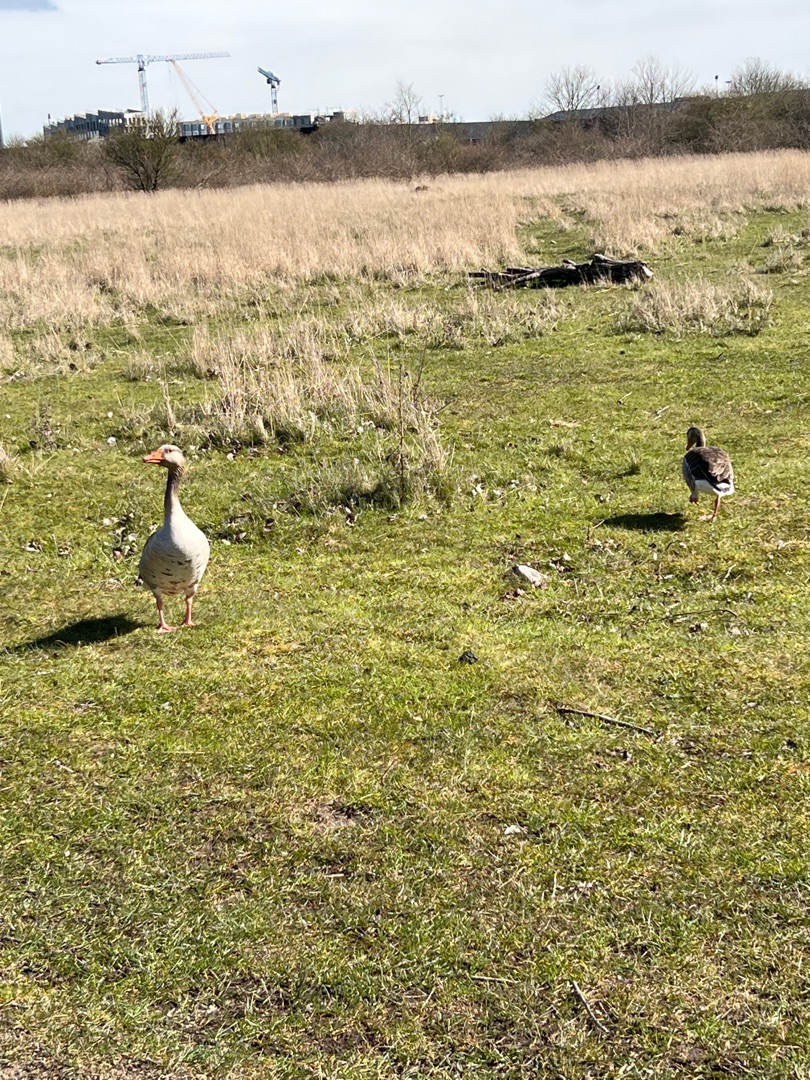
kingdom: Animalia
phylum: Chordata
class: Aves
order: Anseriformes
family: Anatidae
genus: Anser
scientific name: Anser anser
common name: Grågås
